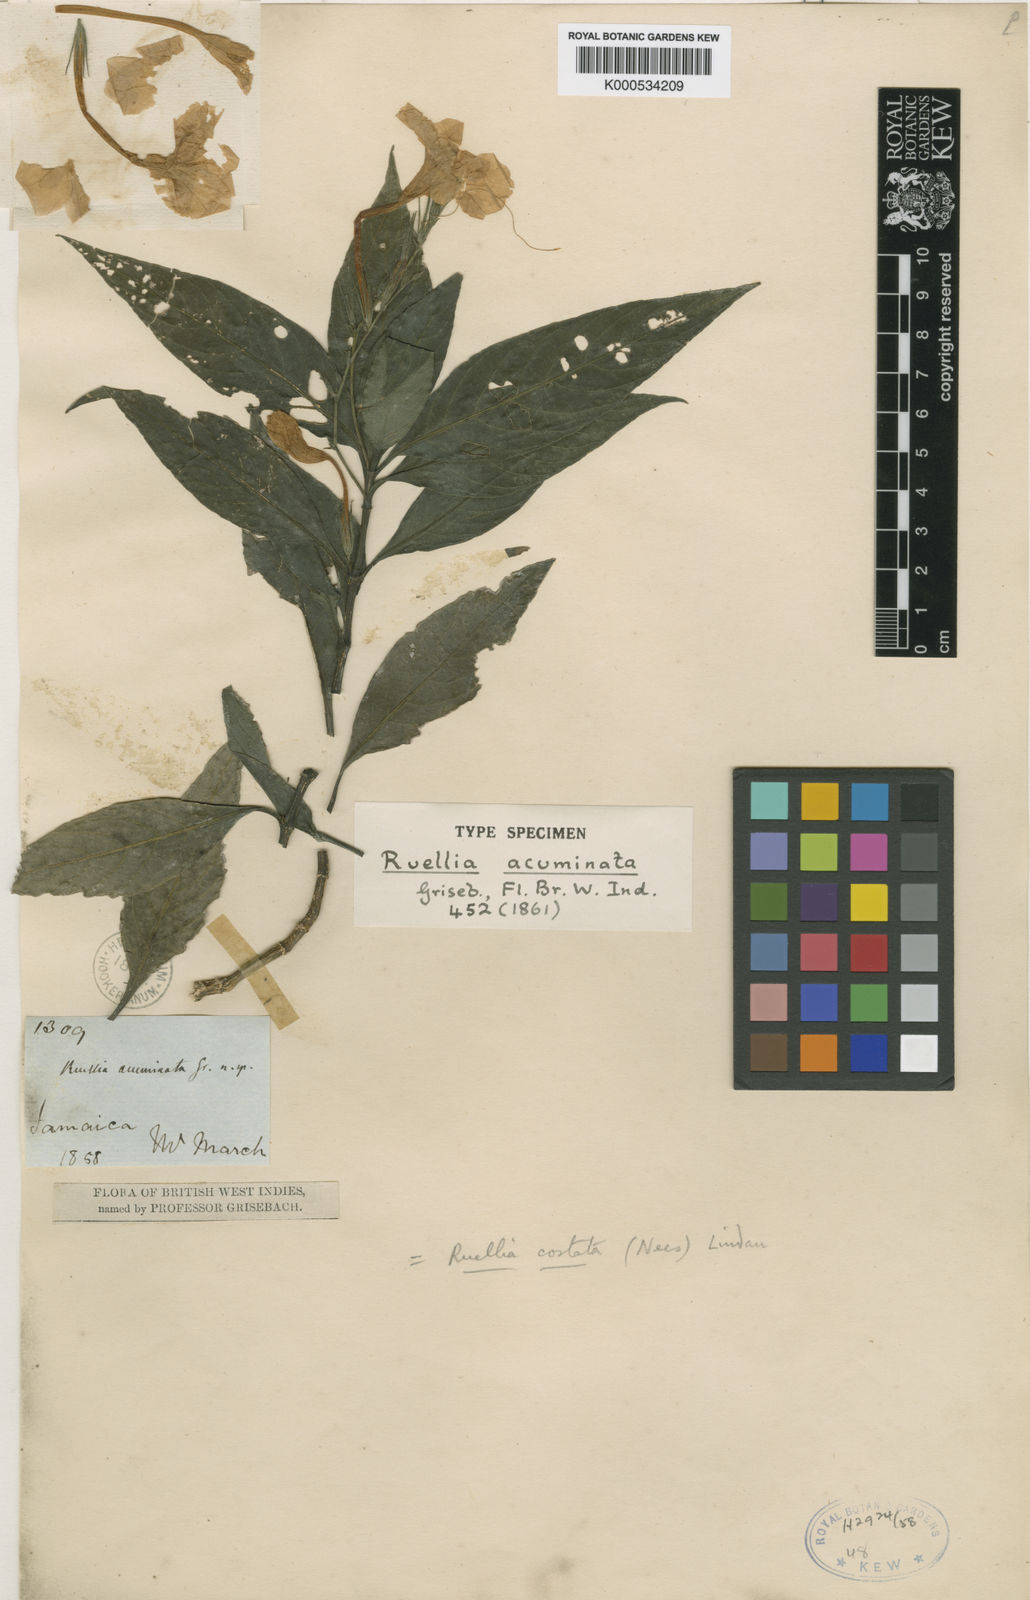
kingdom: Plantae
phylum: Tracheophyta
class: Magnoliopsida
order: Lamiales
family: Acanthaceae
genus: Ruellia
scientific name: Ruellia
